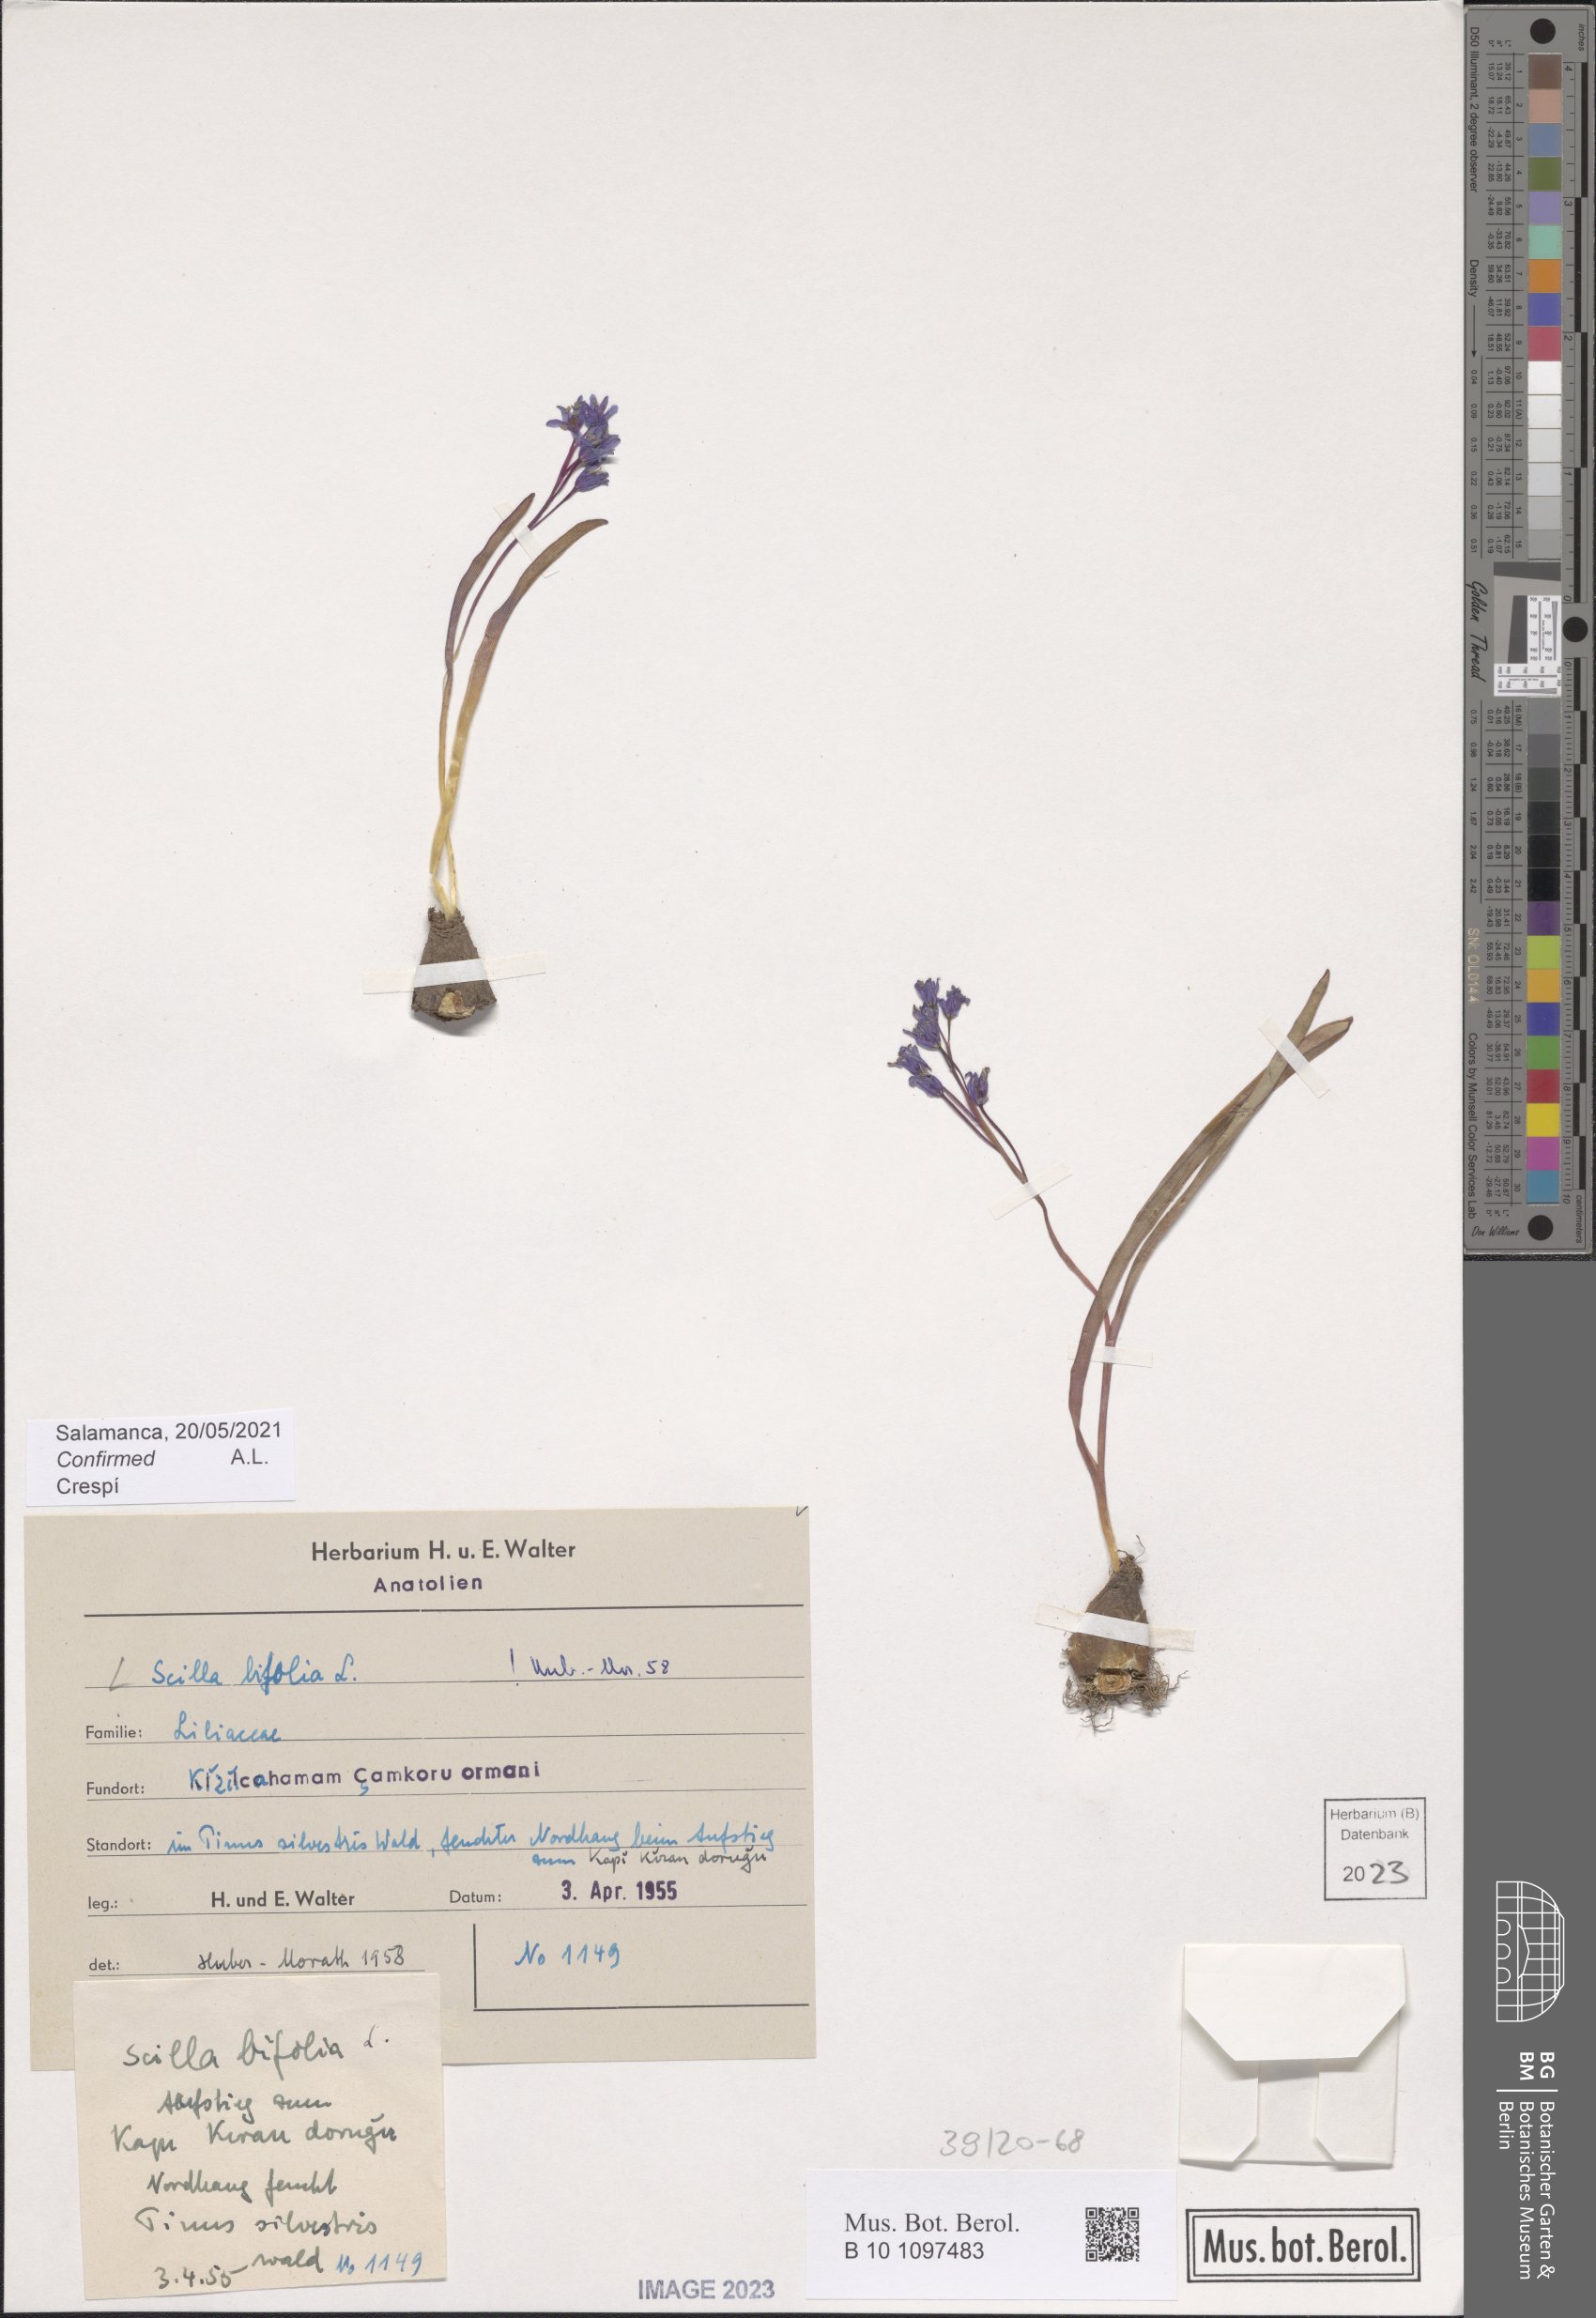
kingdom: Plantae
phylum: Tracheophyta
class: Liliopsida
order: Asparagales
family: Asparagaceae
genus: Scilla
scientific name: Scilla bifolia
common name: Alpine squill
